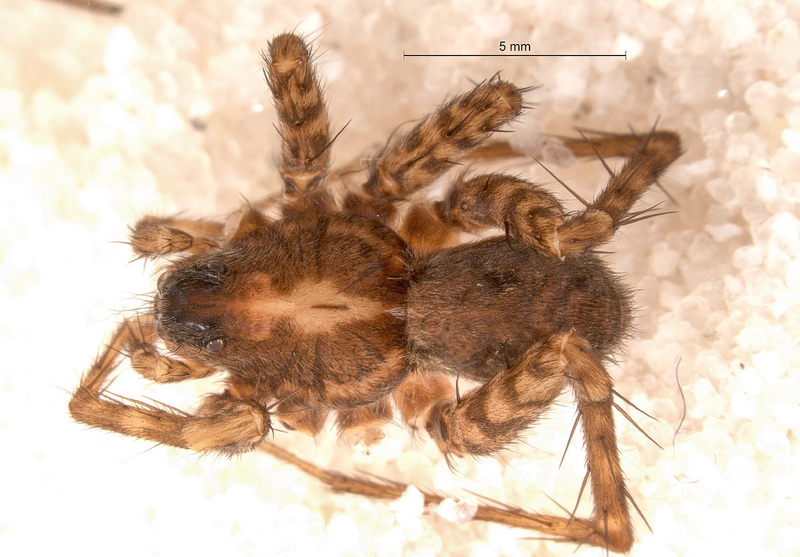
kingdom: Animalia
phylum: Arthropoda
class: Arachnida
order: Araneae
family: Lycosidae
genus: Pardosa
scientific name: Pardosa hortensis
